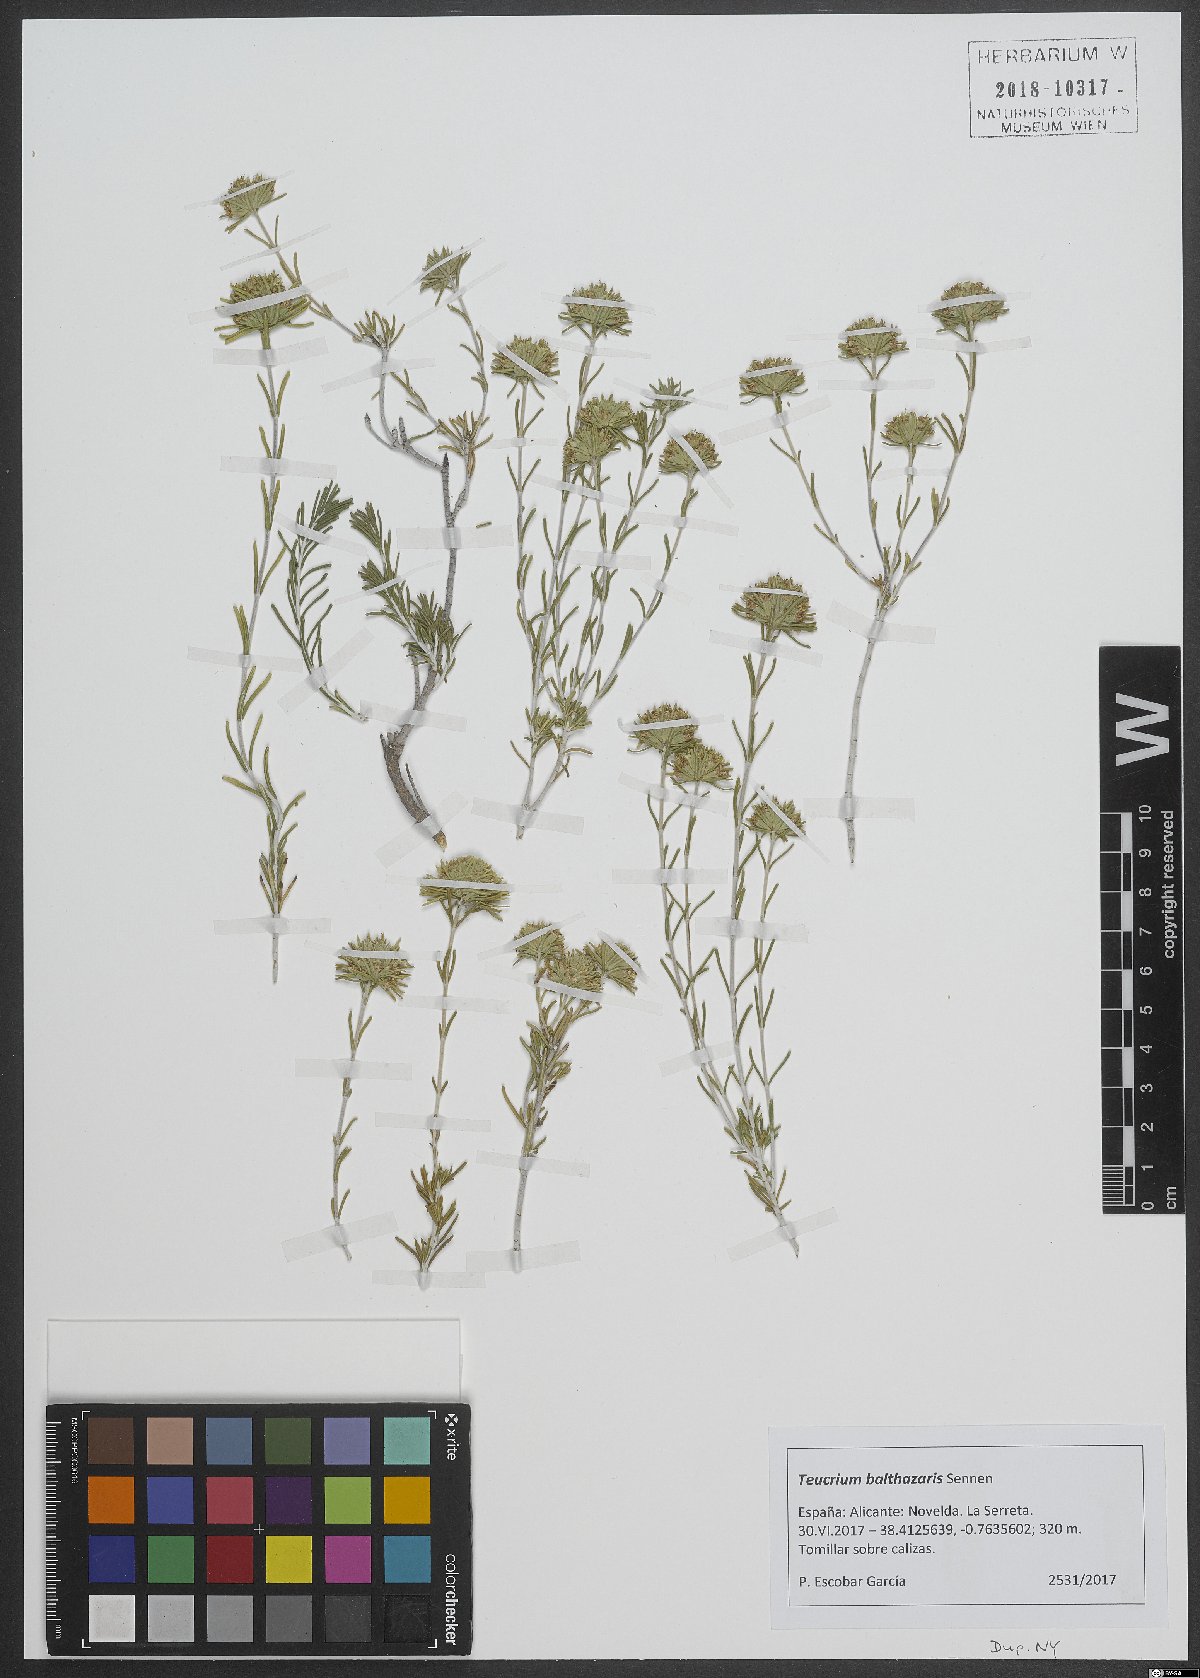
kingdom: Plantae
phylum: Tracheophyta
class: Magnoliopsida
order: Lamiales
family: Lamiaceae
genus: Teucrium
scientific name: Teucrium balthazaris
